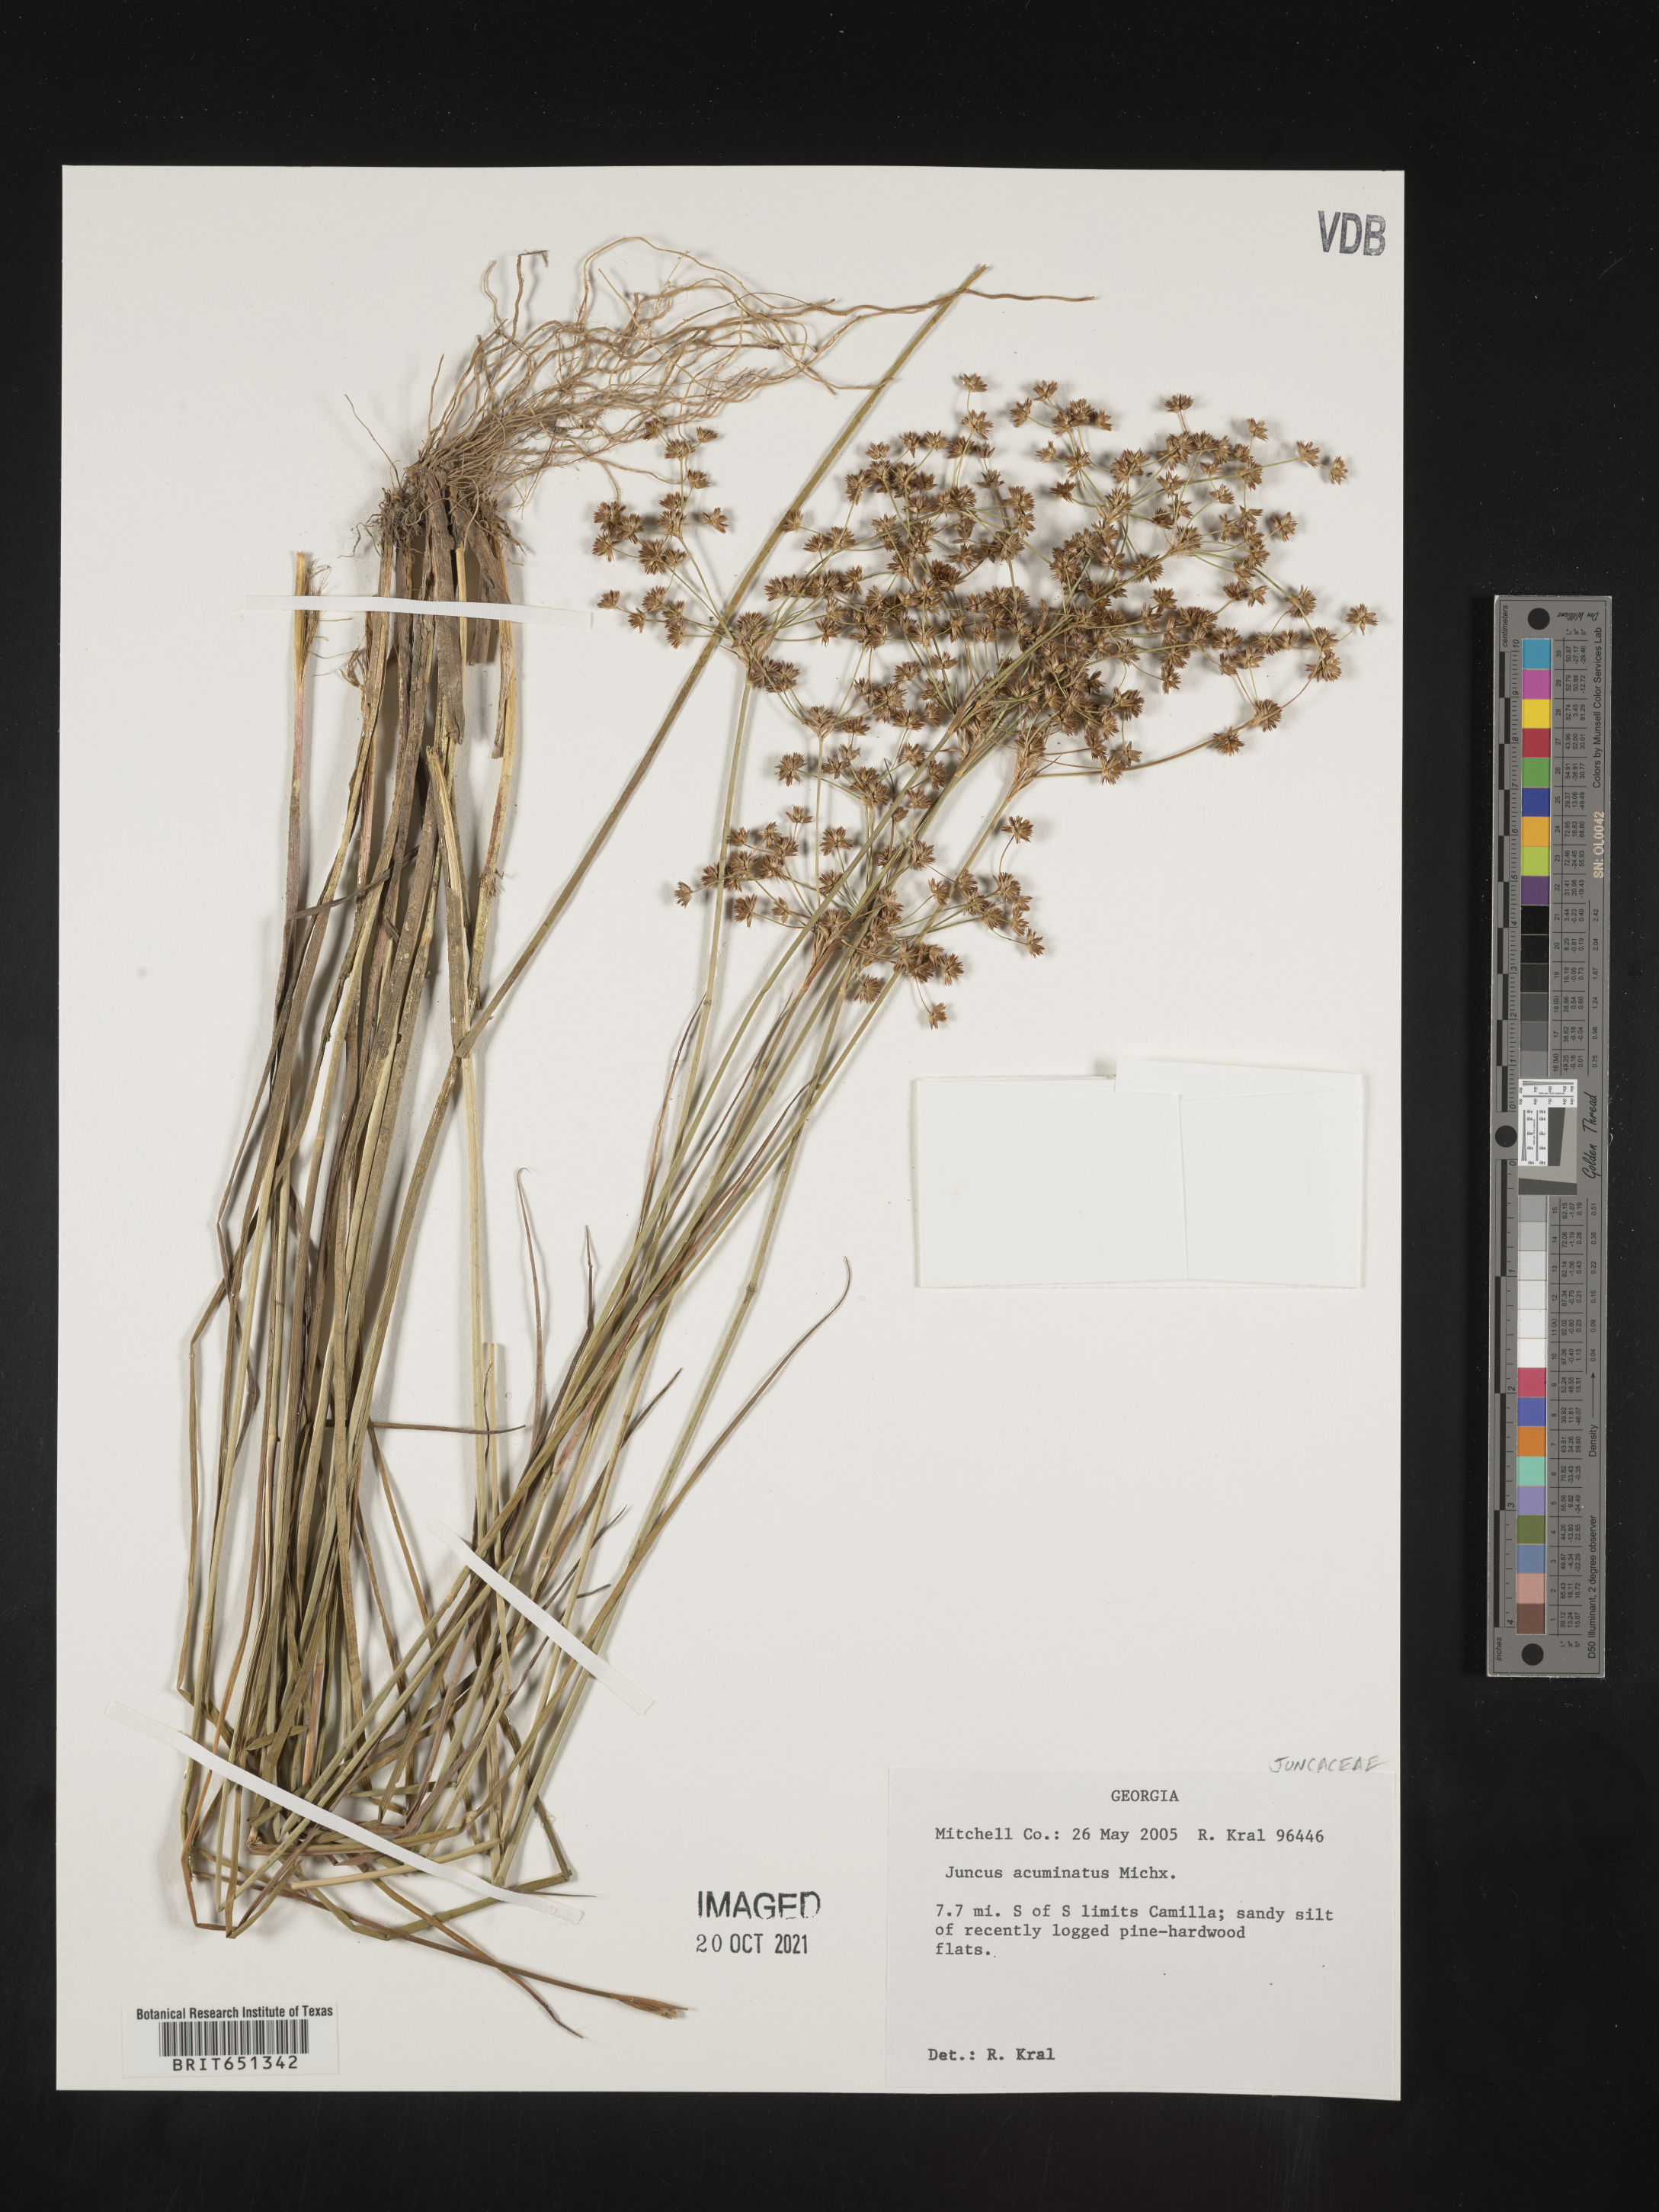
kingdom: Plantae
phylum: Tracheophyta
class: Liliopsida
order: Poales
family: Juncaceae
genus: Juncus
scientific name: Juncus acuminatus
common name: Knotty-leaved rush
